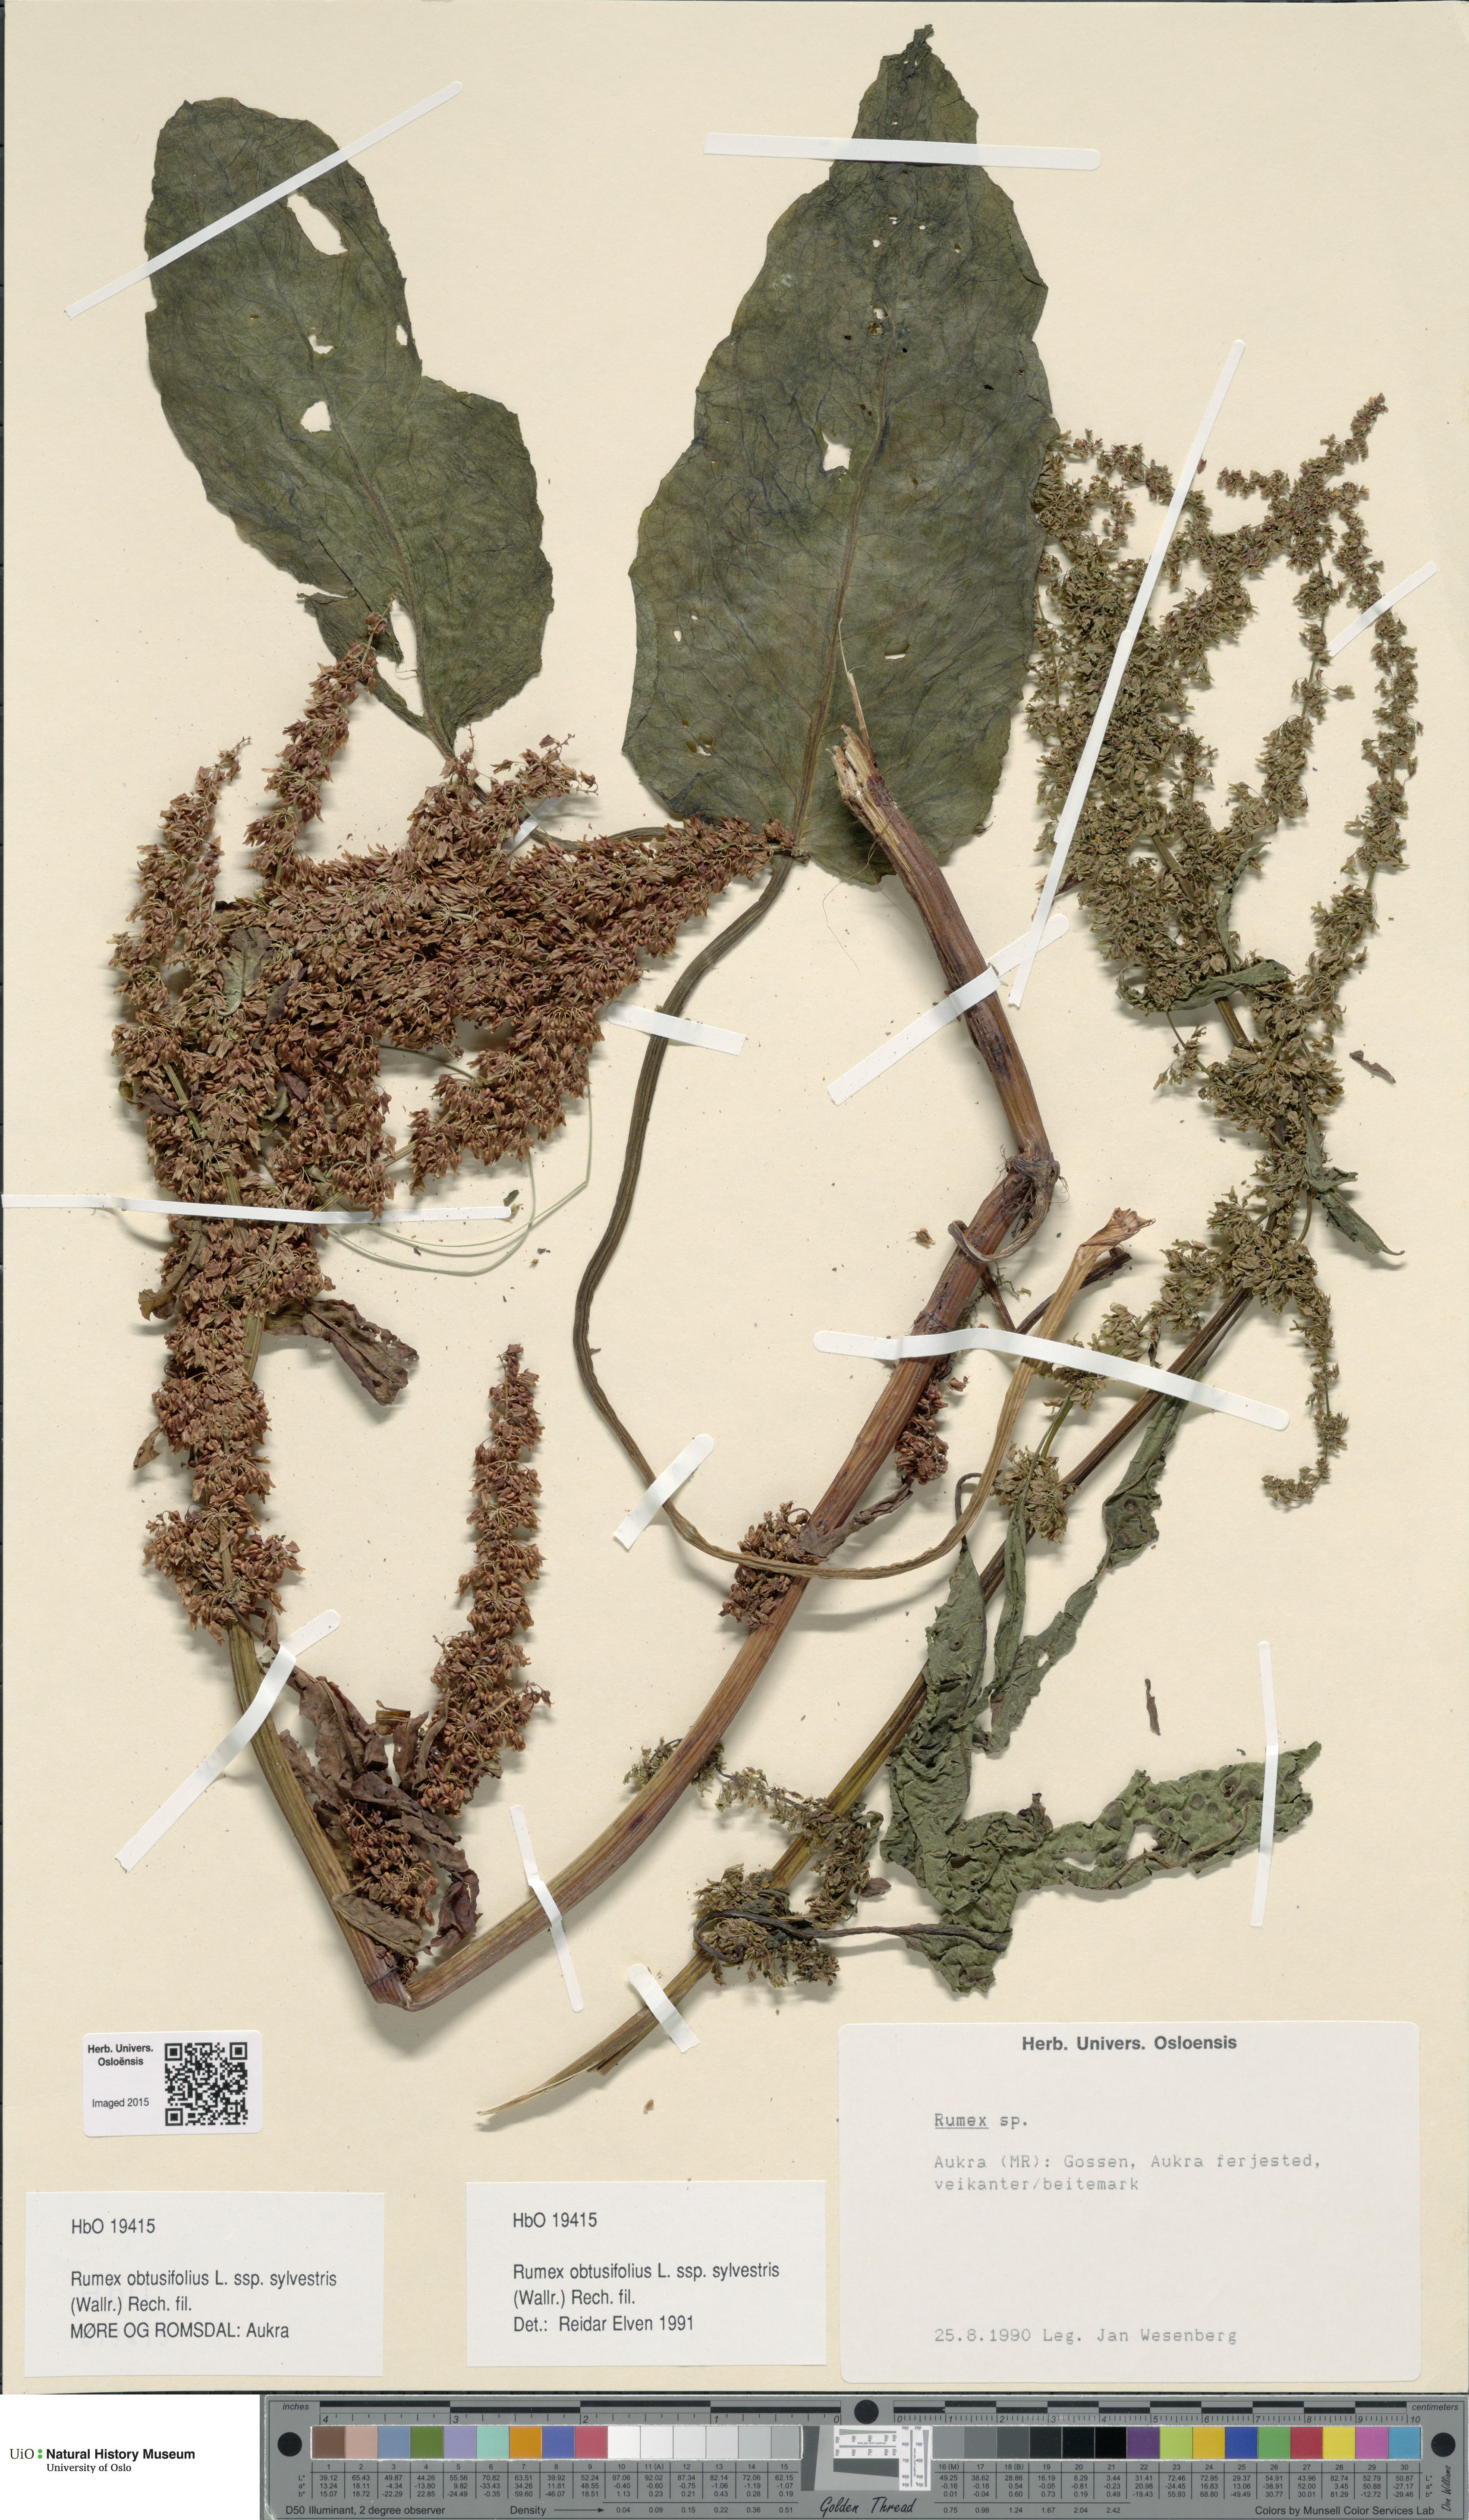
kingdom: Plantae
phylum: Tracheophyta
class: Magnoliopsida
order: Caryophyllales
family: Polygonaceae
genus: Rumex
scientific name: Rumex obtusifolius
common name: Bitter dock
